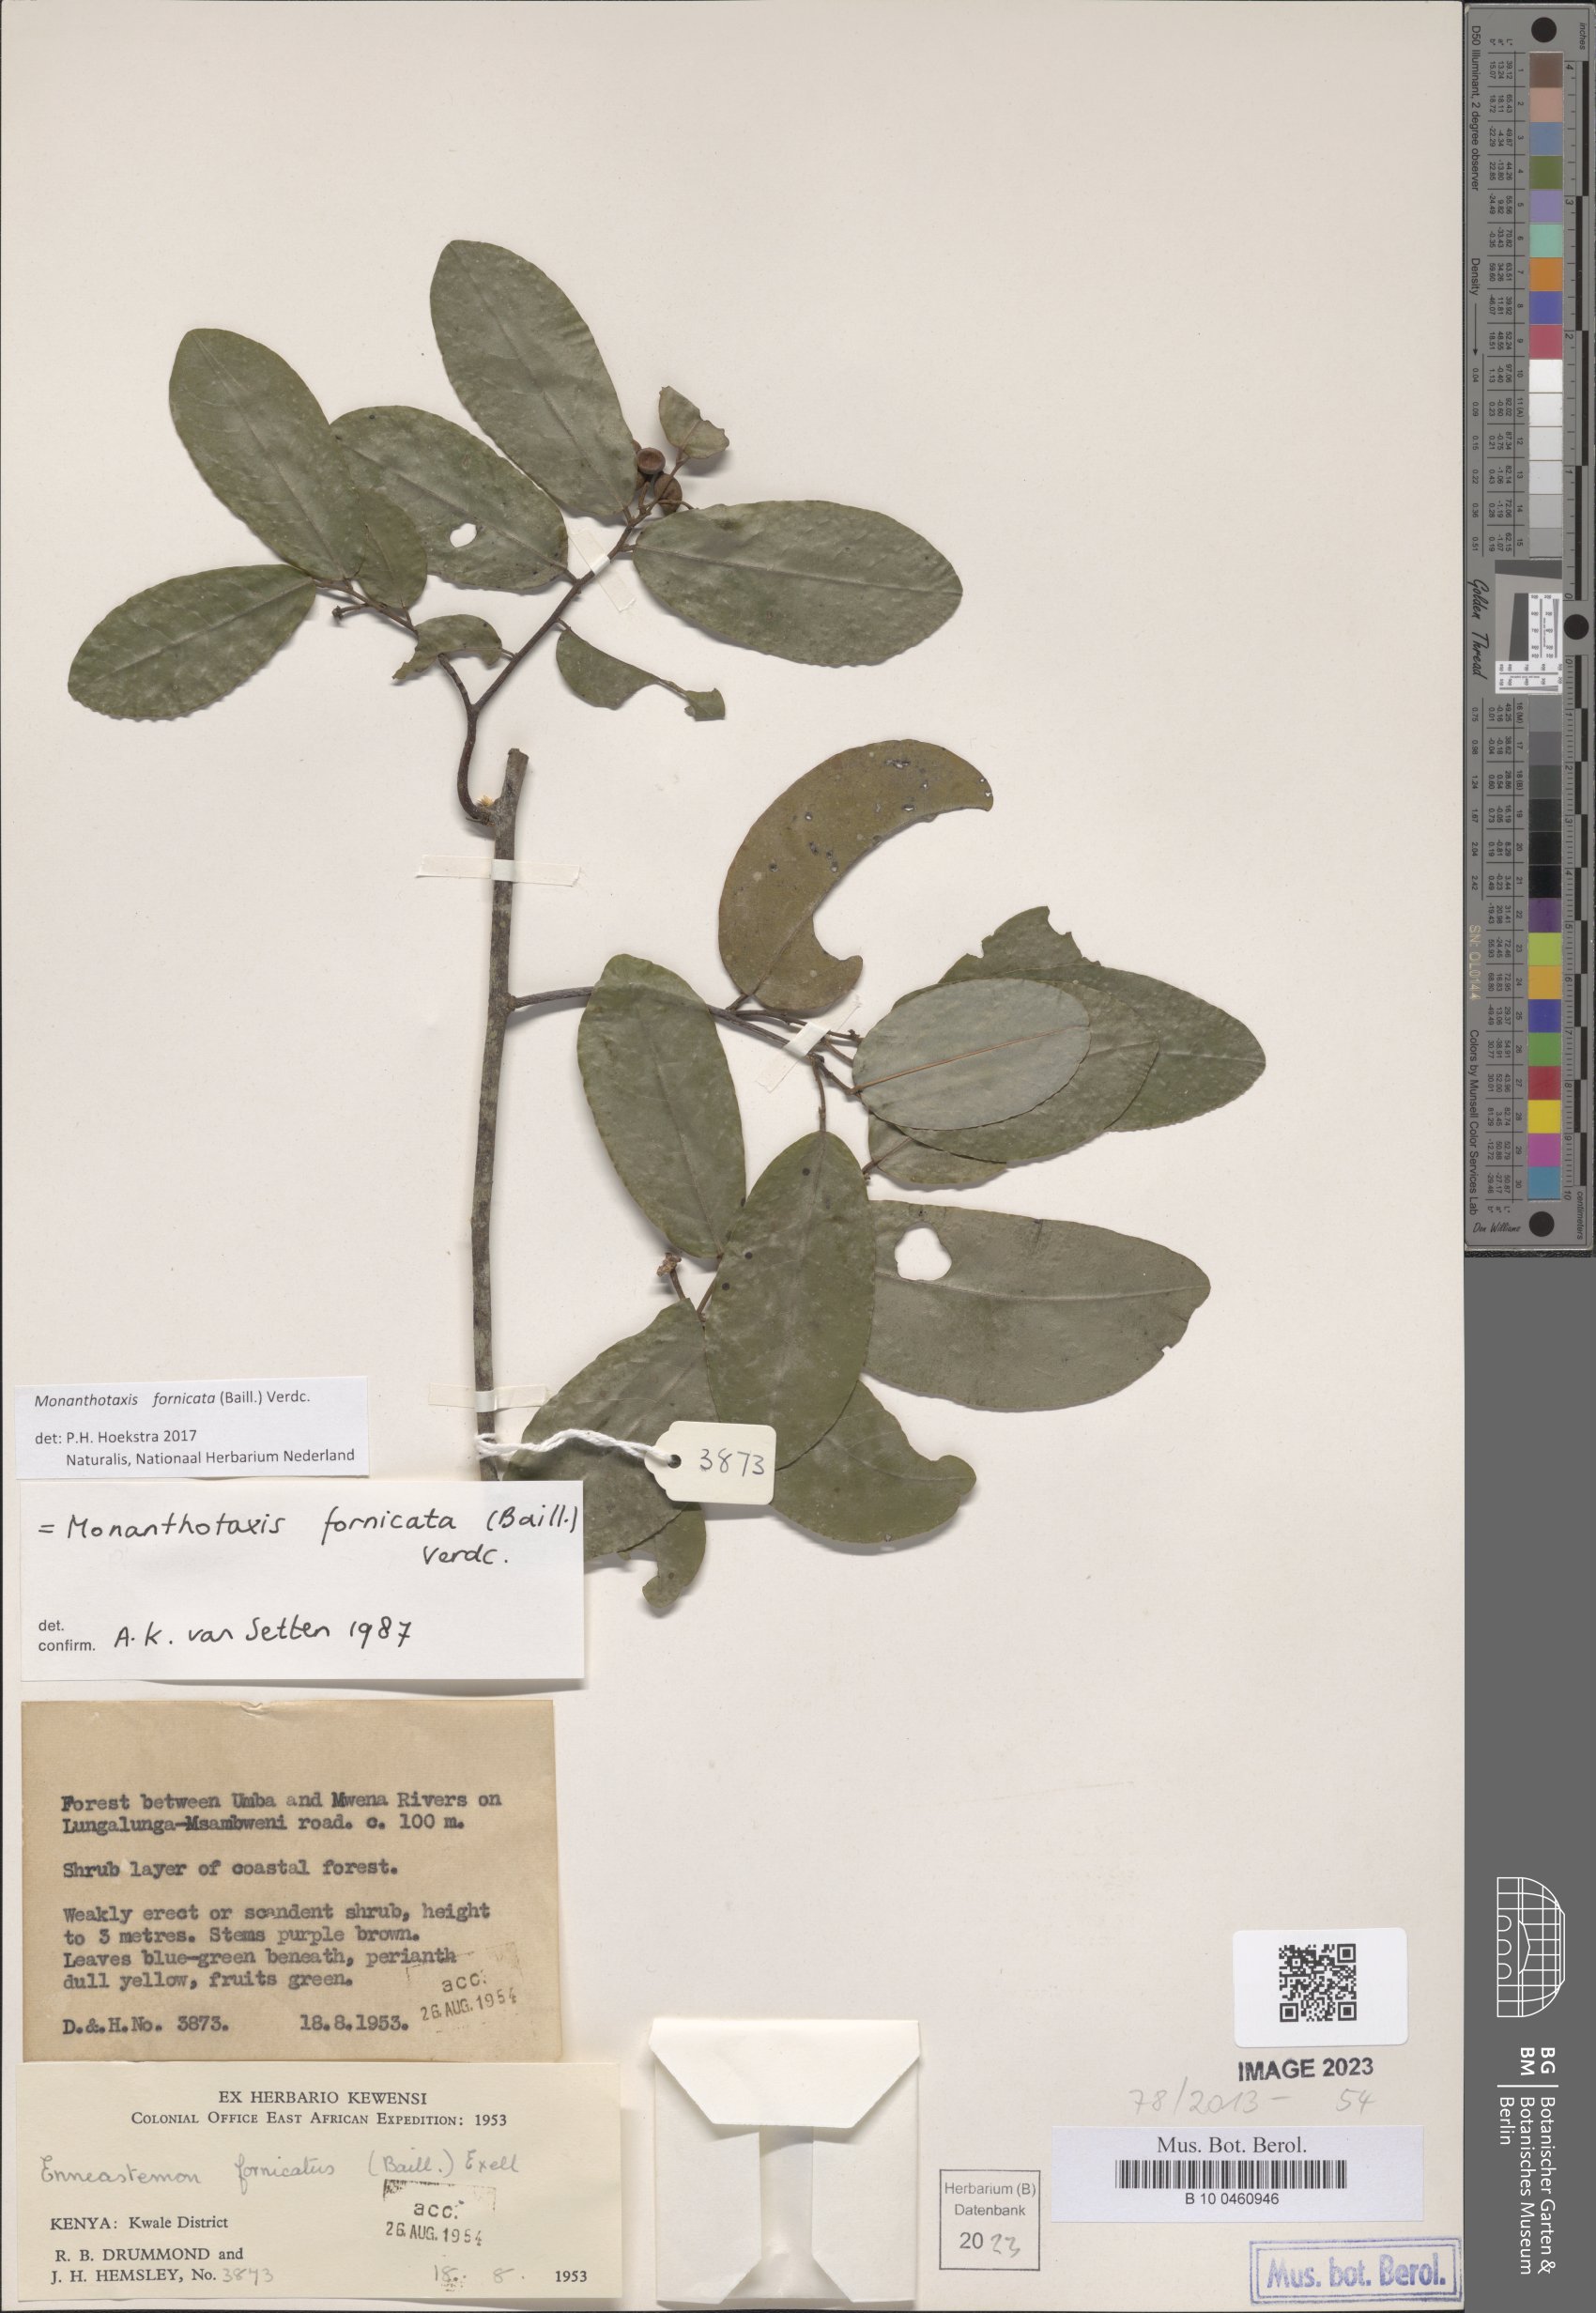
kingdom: Plantae
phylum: Tracheophyta
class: Magnoliopsida
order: Magnoliales
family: Annonaceae
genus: Monanthotaxis
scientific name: Monanthotaxis fornicata
